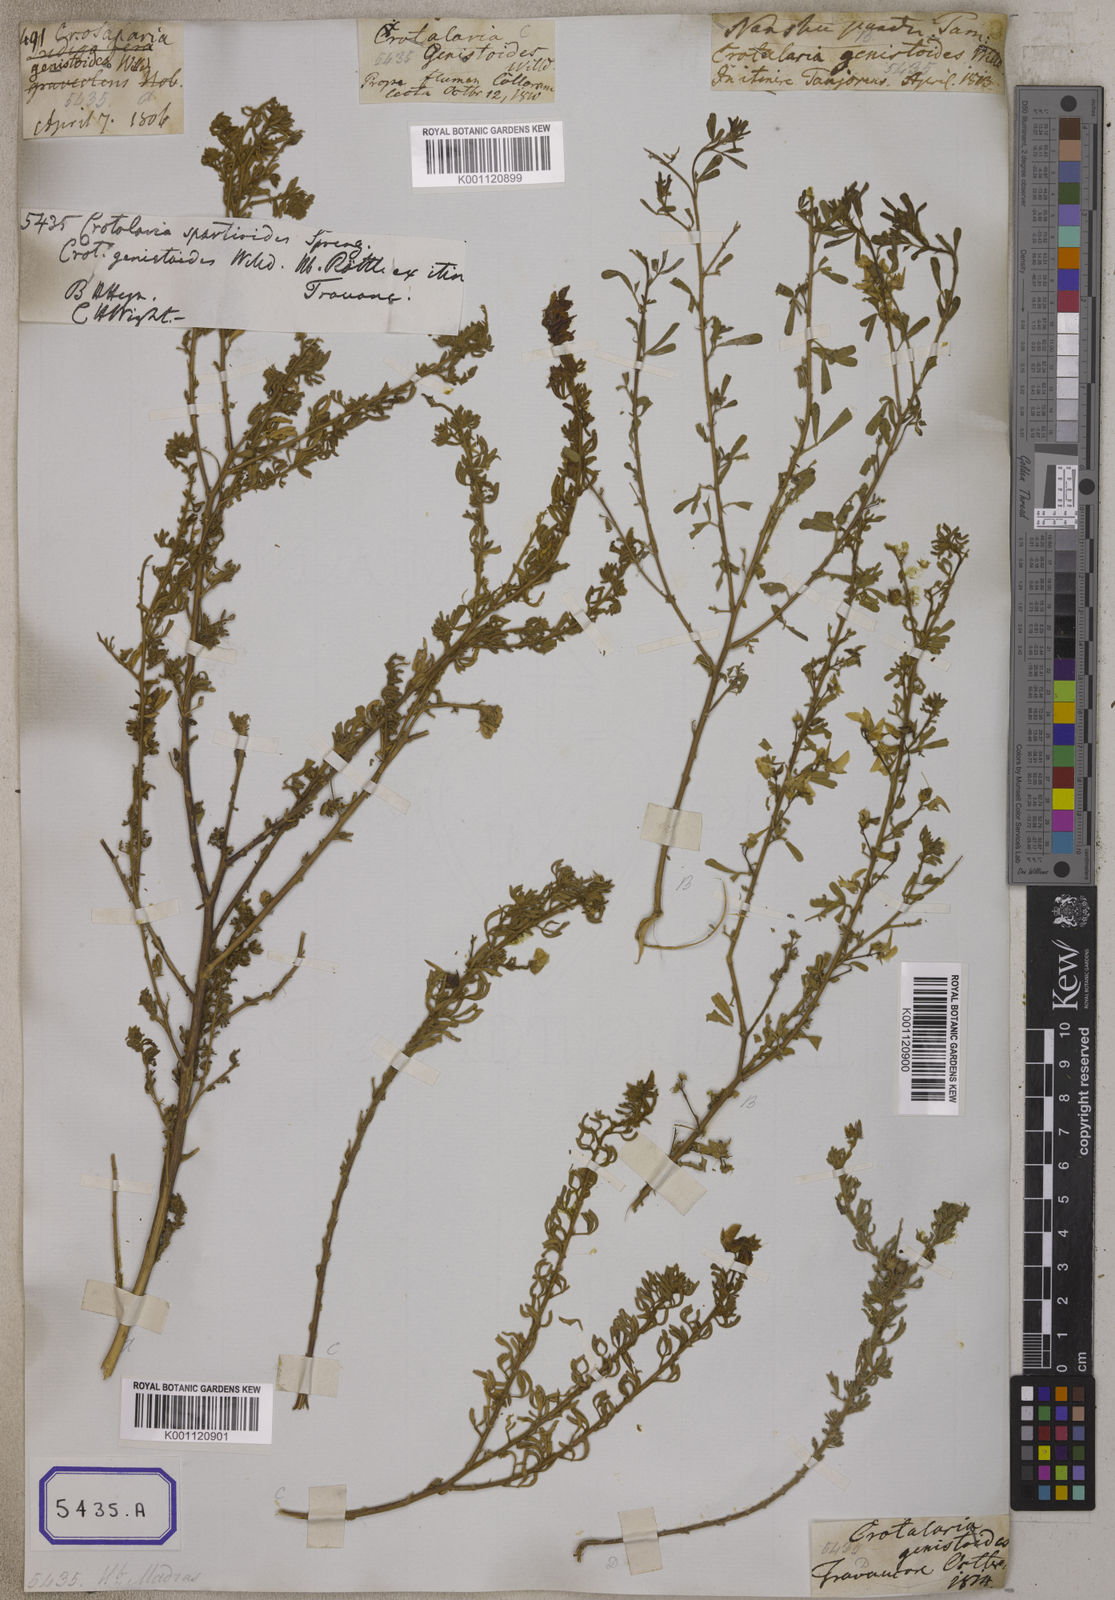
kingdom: Plantae
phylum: Tracheophyta
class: Magnoliopsida
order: Fabales
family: Fabaceae
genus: Crotalaria
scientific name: Crotalaria willdenowiana
